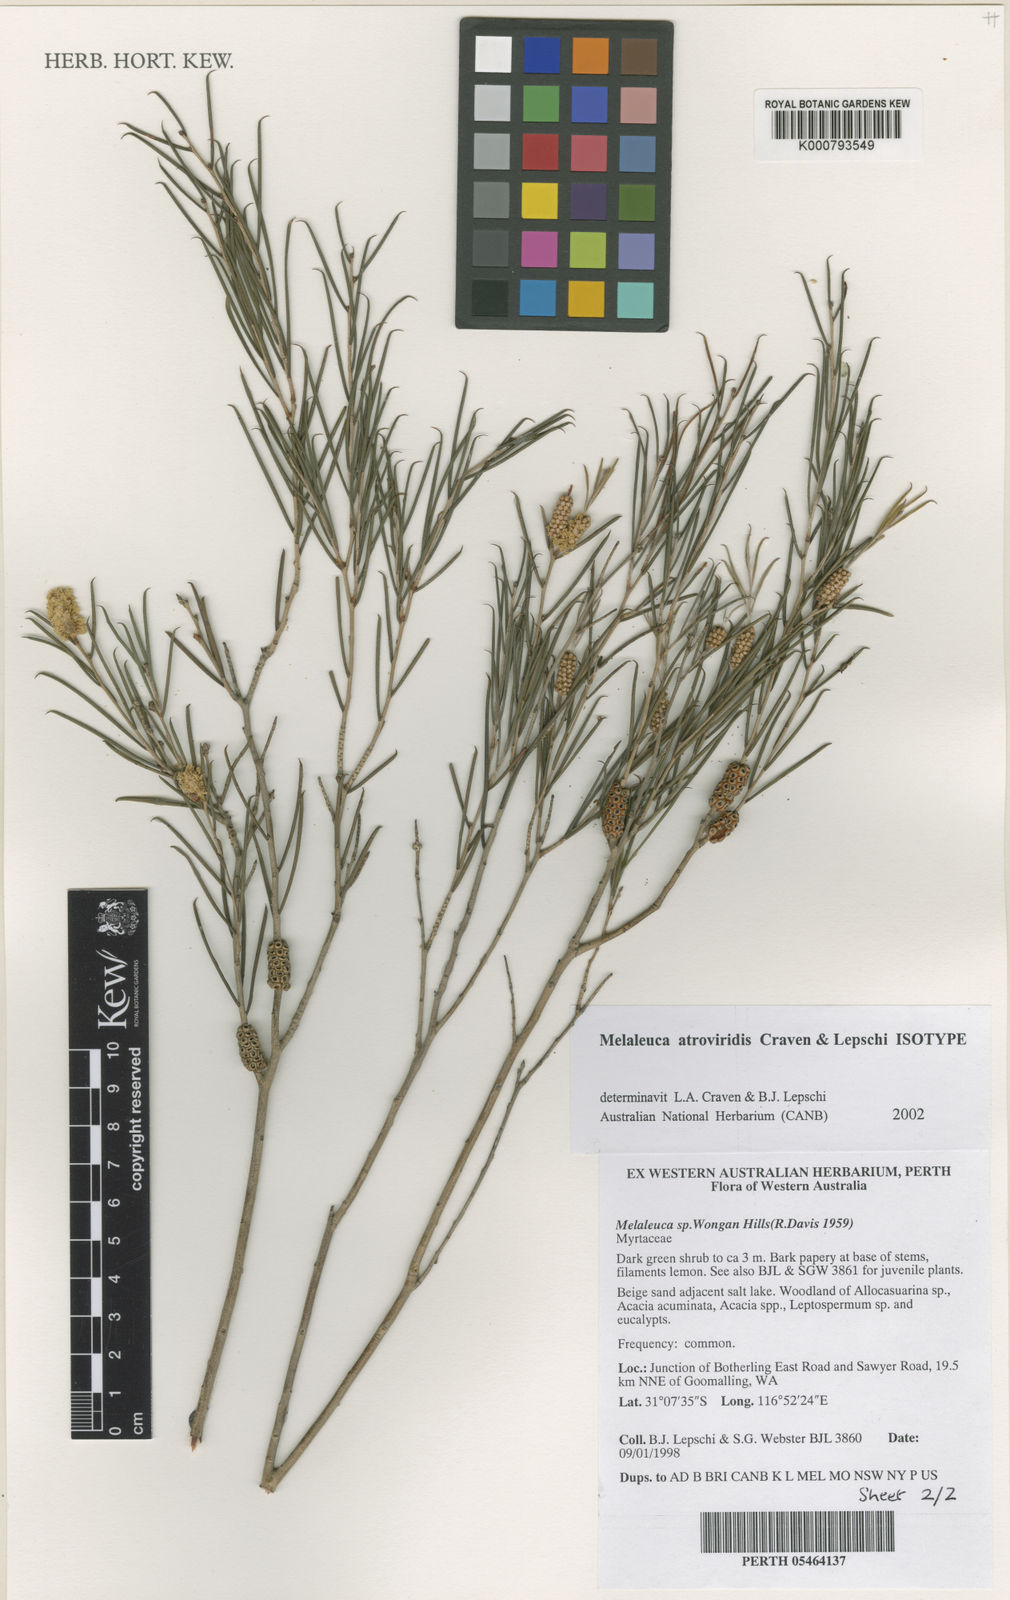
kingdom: Plantae
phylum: Tracheophyta
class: Magnoliopsida
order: Myrtales
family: Myrtaceae
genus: Melaleuca
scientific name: Melaleuca atroviridis
